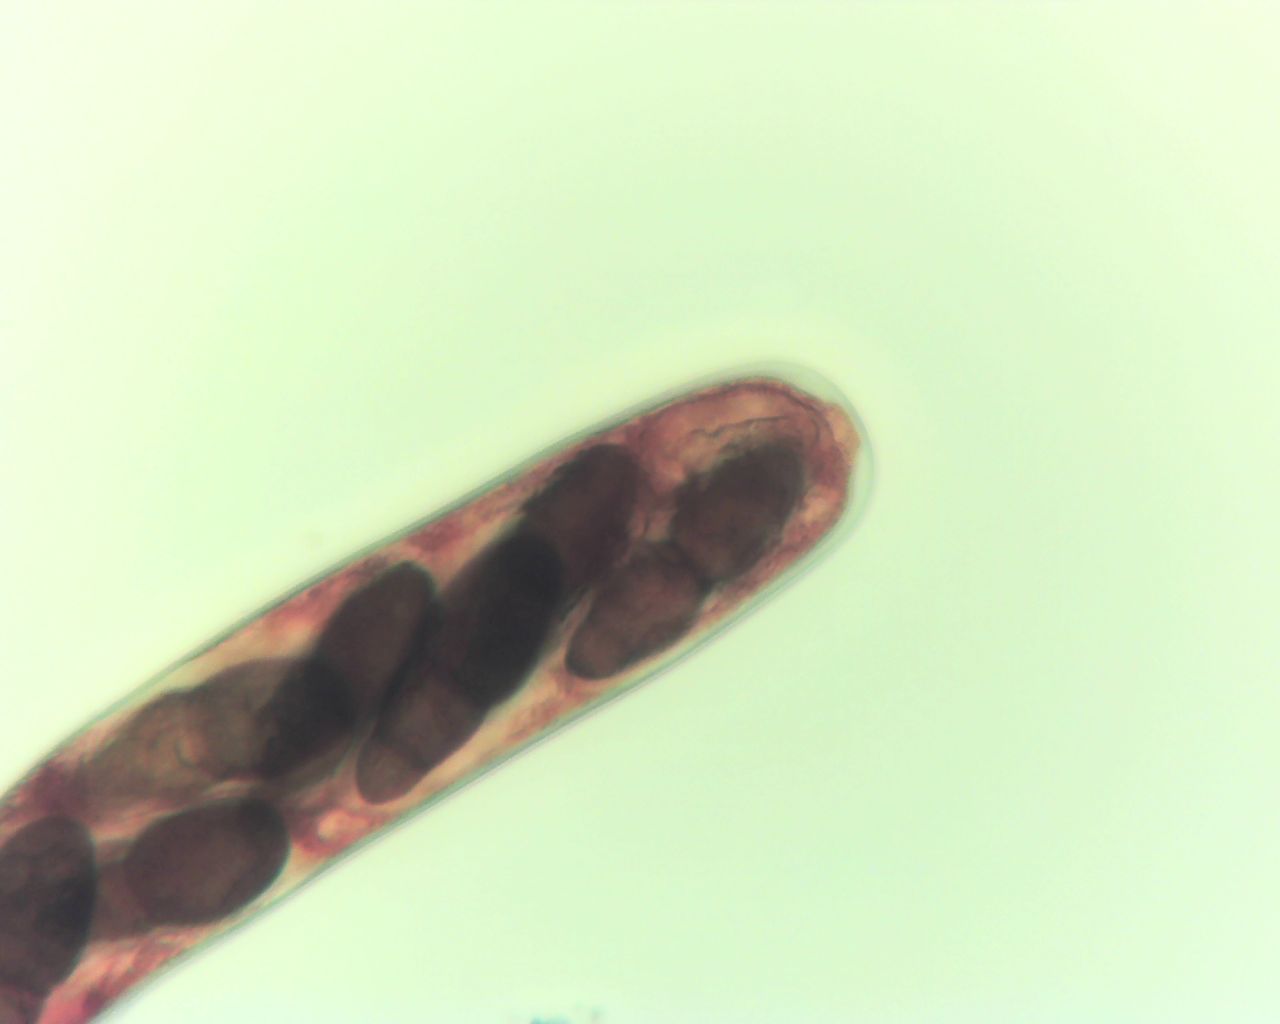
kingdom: Fungi
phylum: Ascomycota
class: Dothideomycetes
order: Pleosporales
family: Pleomassariaceae
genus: Splanchnonema
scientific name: Splanchnonema foedans
